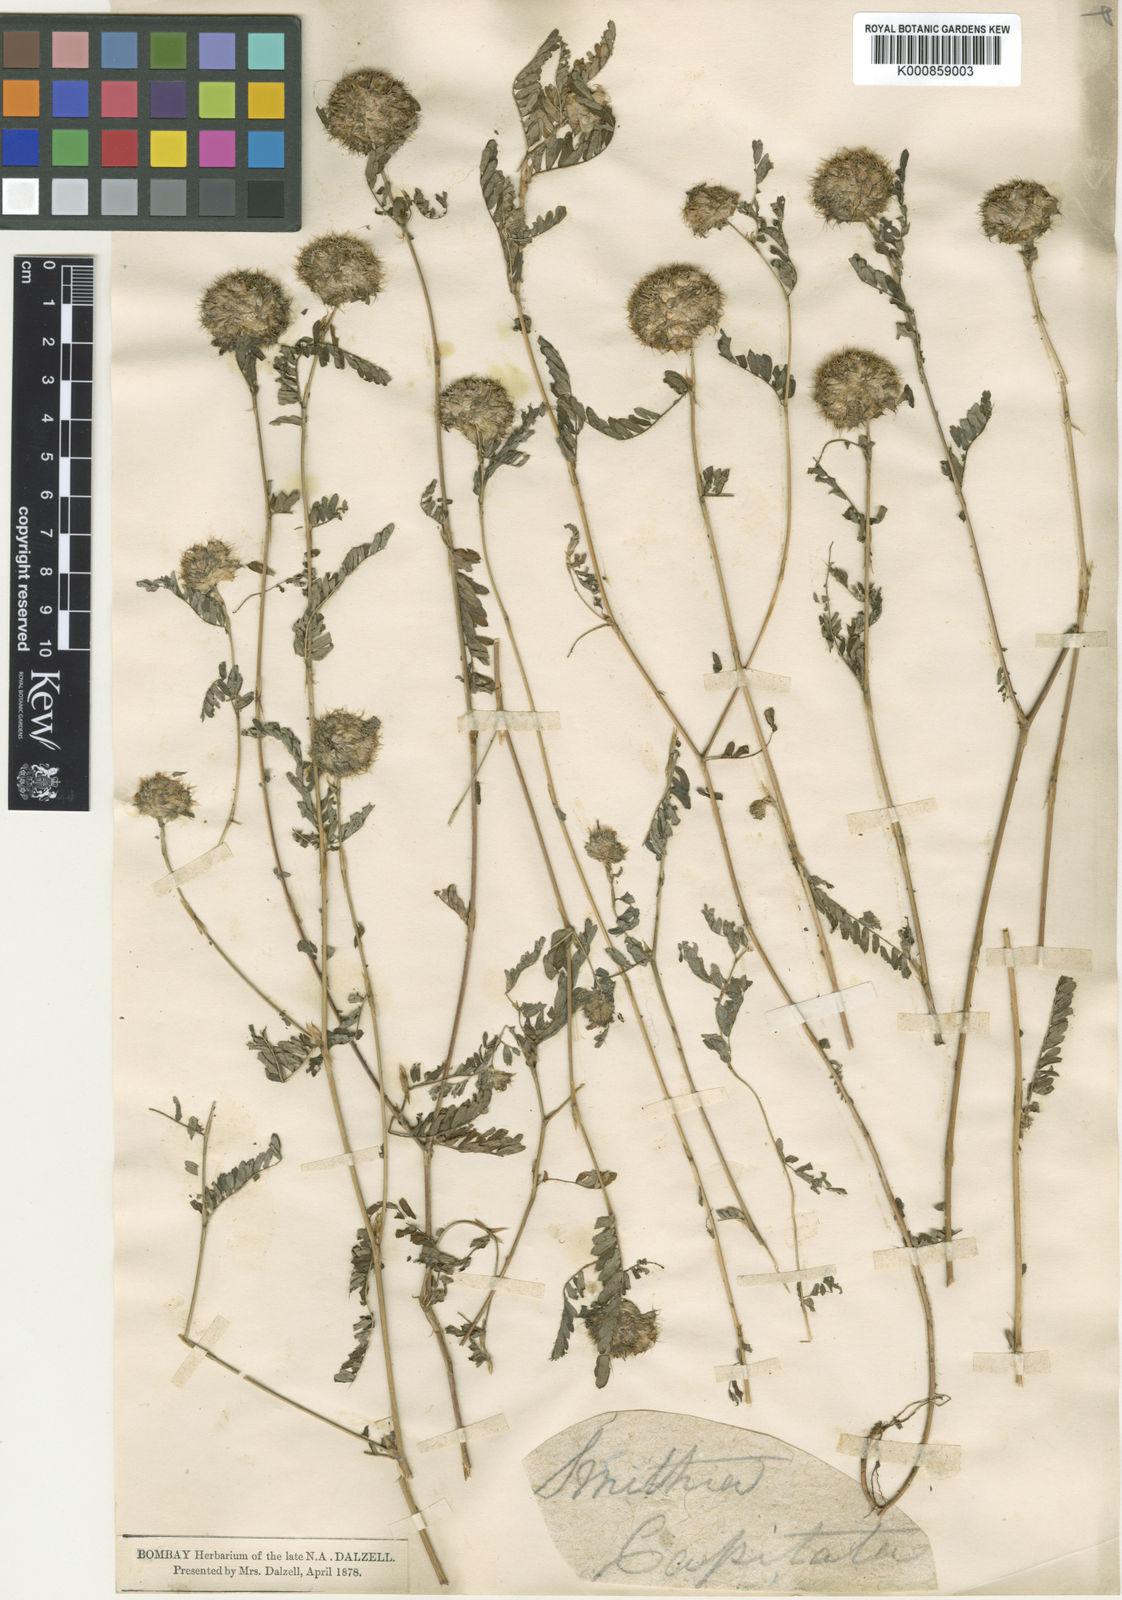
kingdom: Plantae
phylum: Tracheophyta
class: Magnoliopsida
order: Fabales
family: Fabaceae
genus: Smithia
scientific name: Smithia capitata
